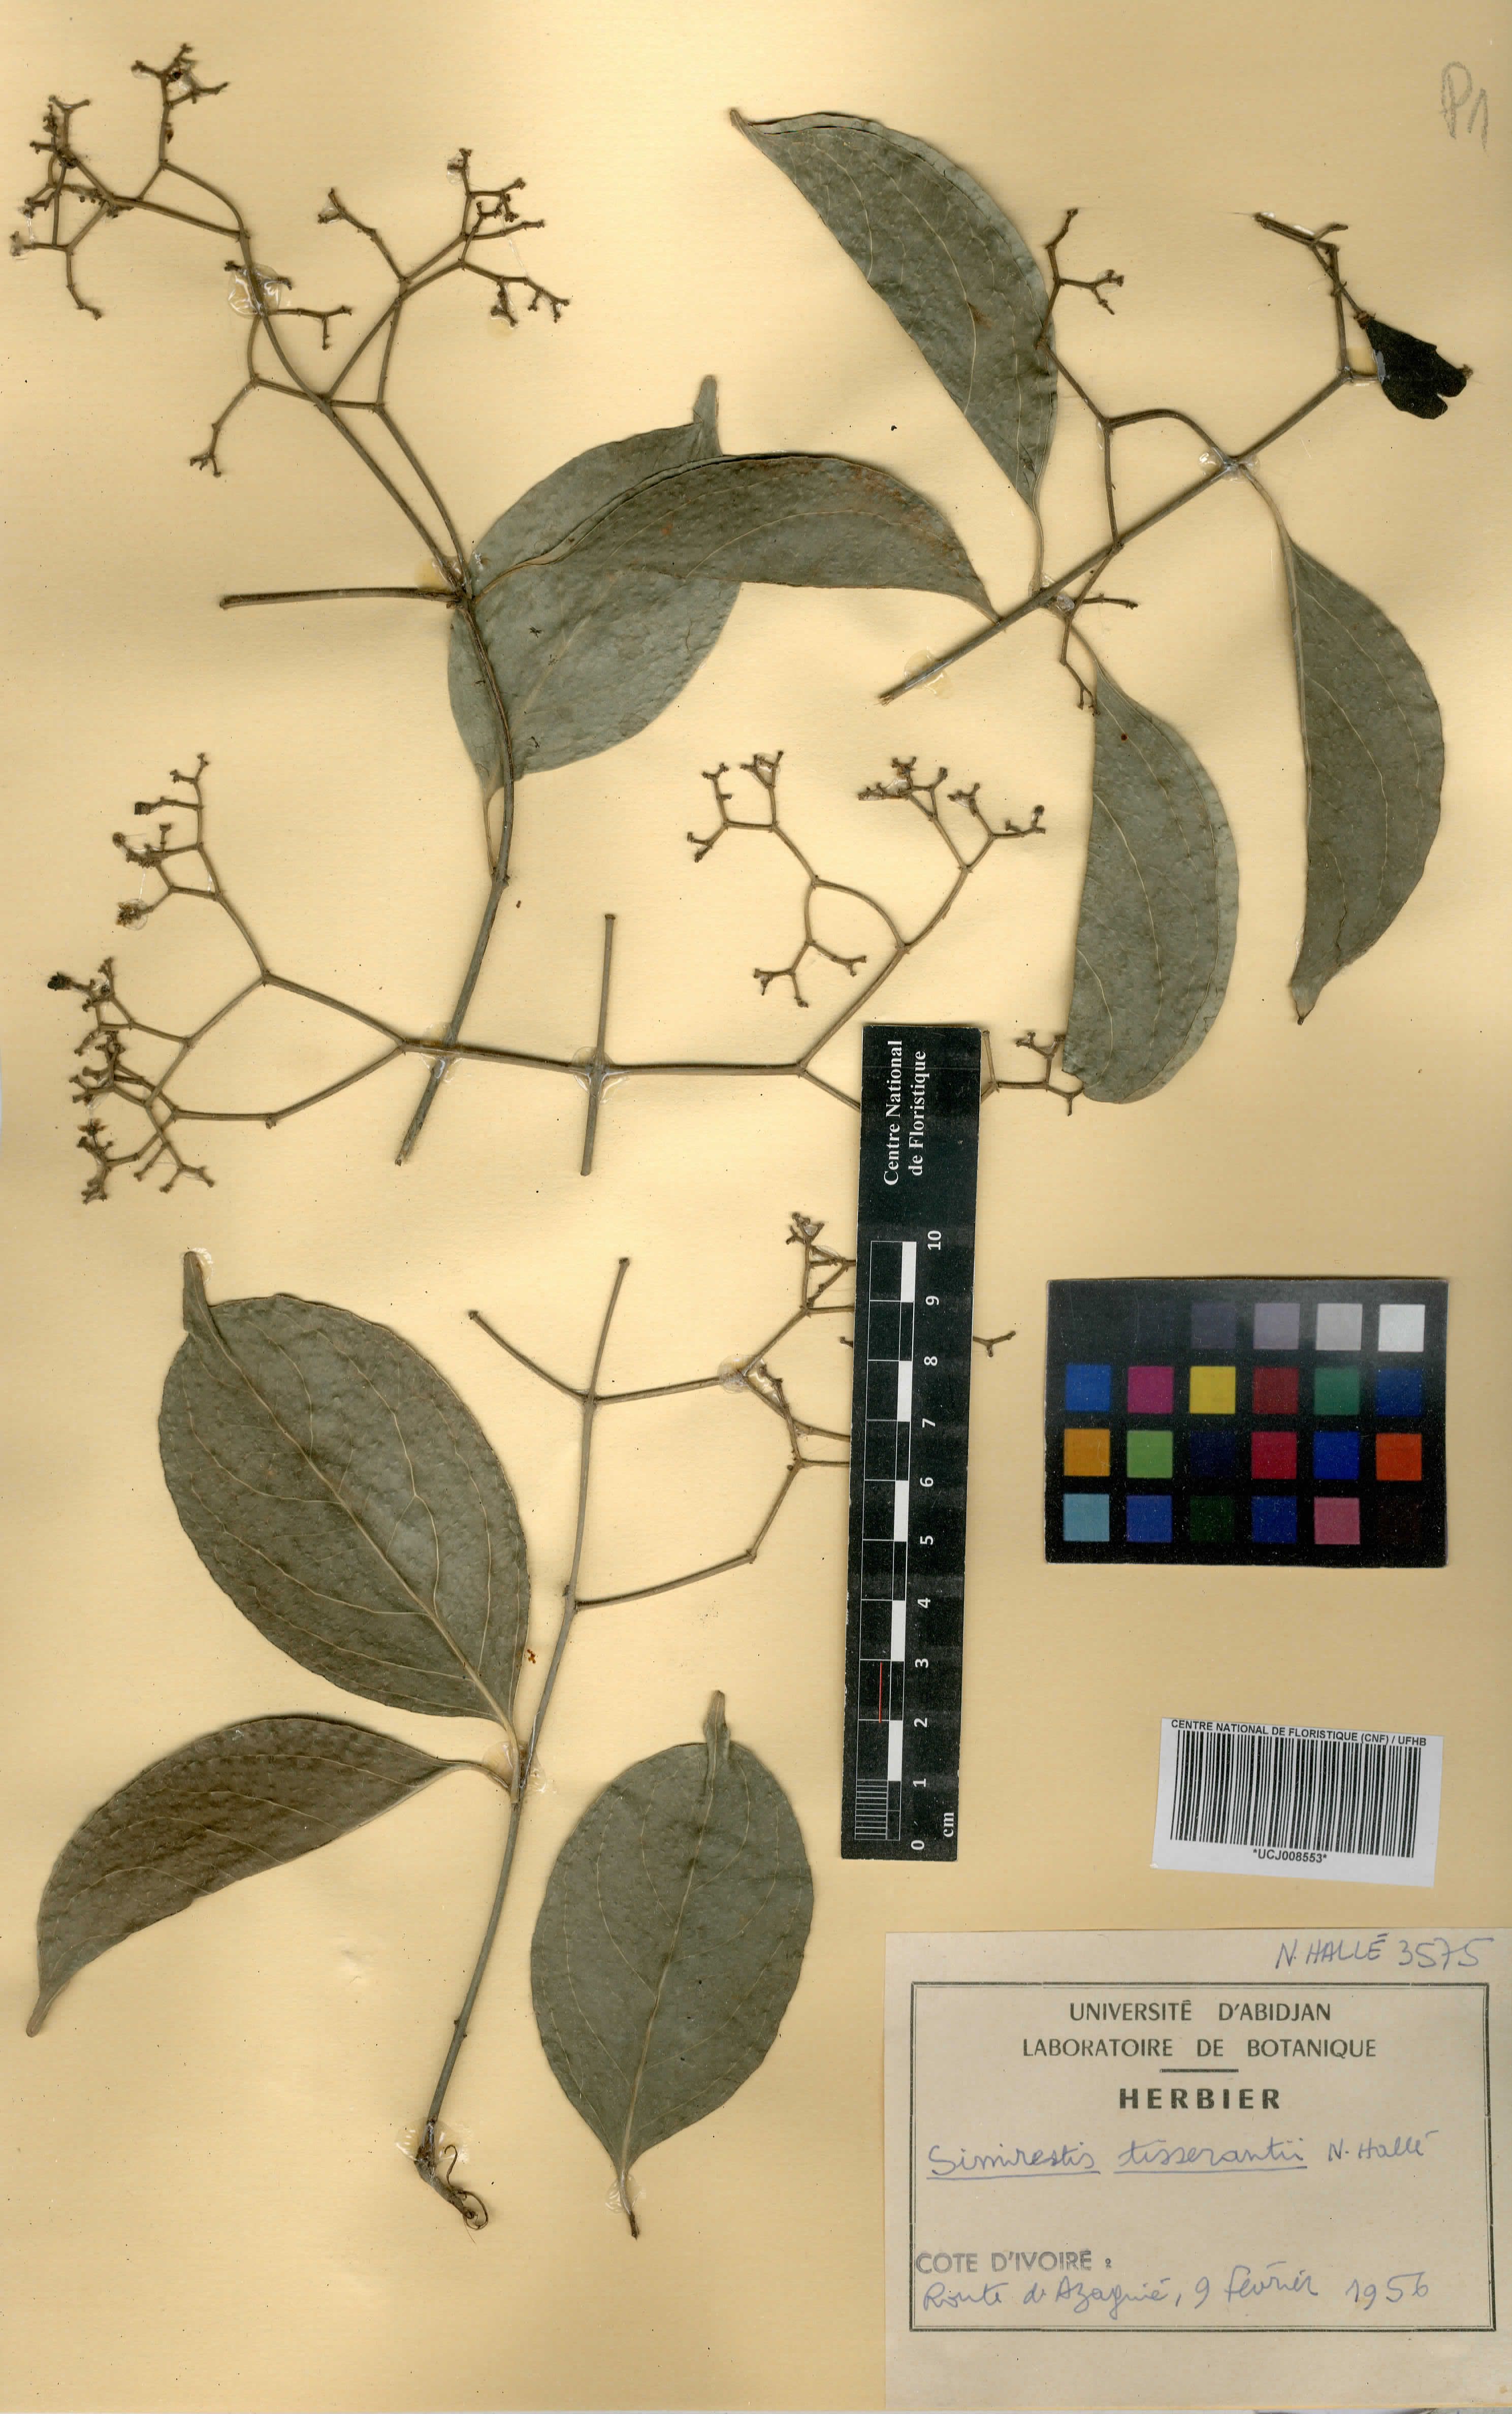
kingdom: Plantae
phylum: Tracheophyta
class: Magnoliopsida
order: Celastrales
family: Celastraceae
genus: Pristimera
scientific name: Pristimera tisserantii
